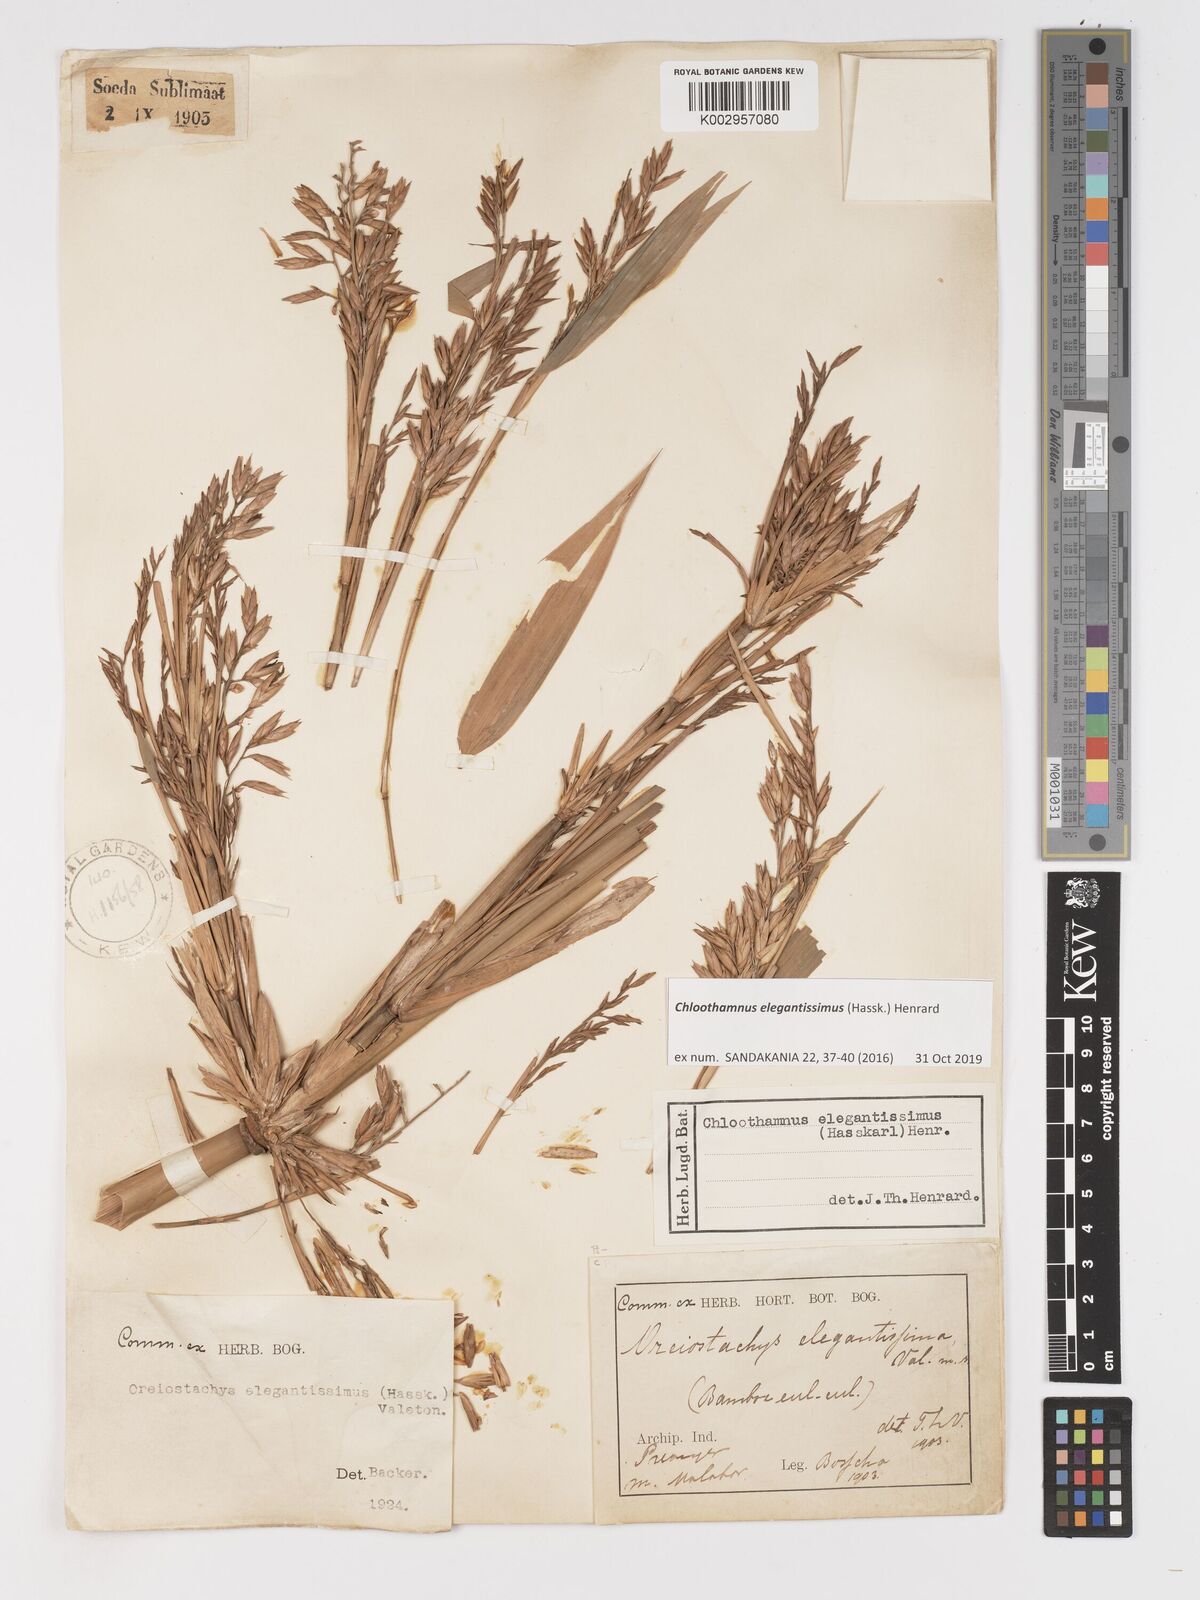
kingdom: Plantae
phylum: Tracheophyta
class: Liliopsida
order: Poales
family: Poaceae
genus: Chloothamnus
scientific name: Chloothamnus elegantissimus
